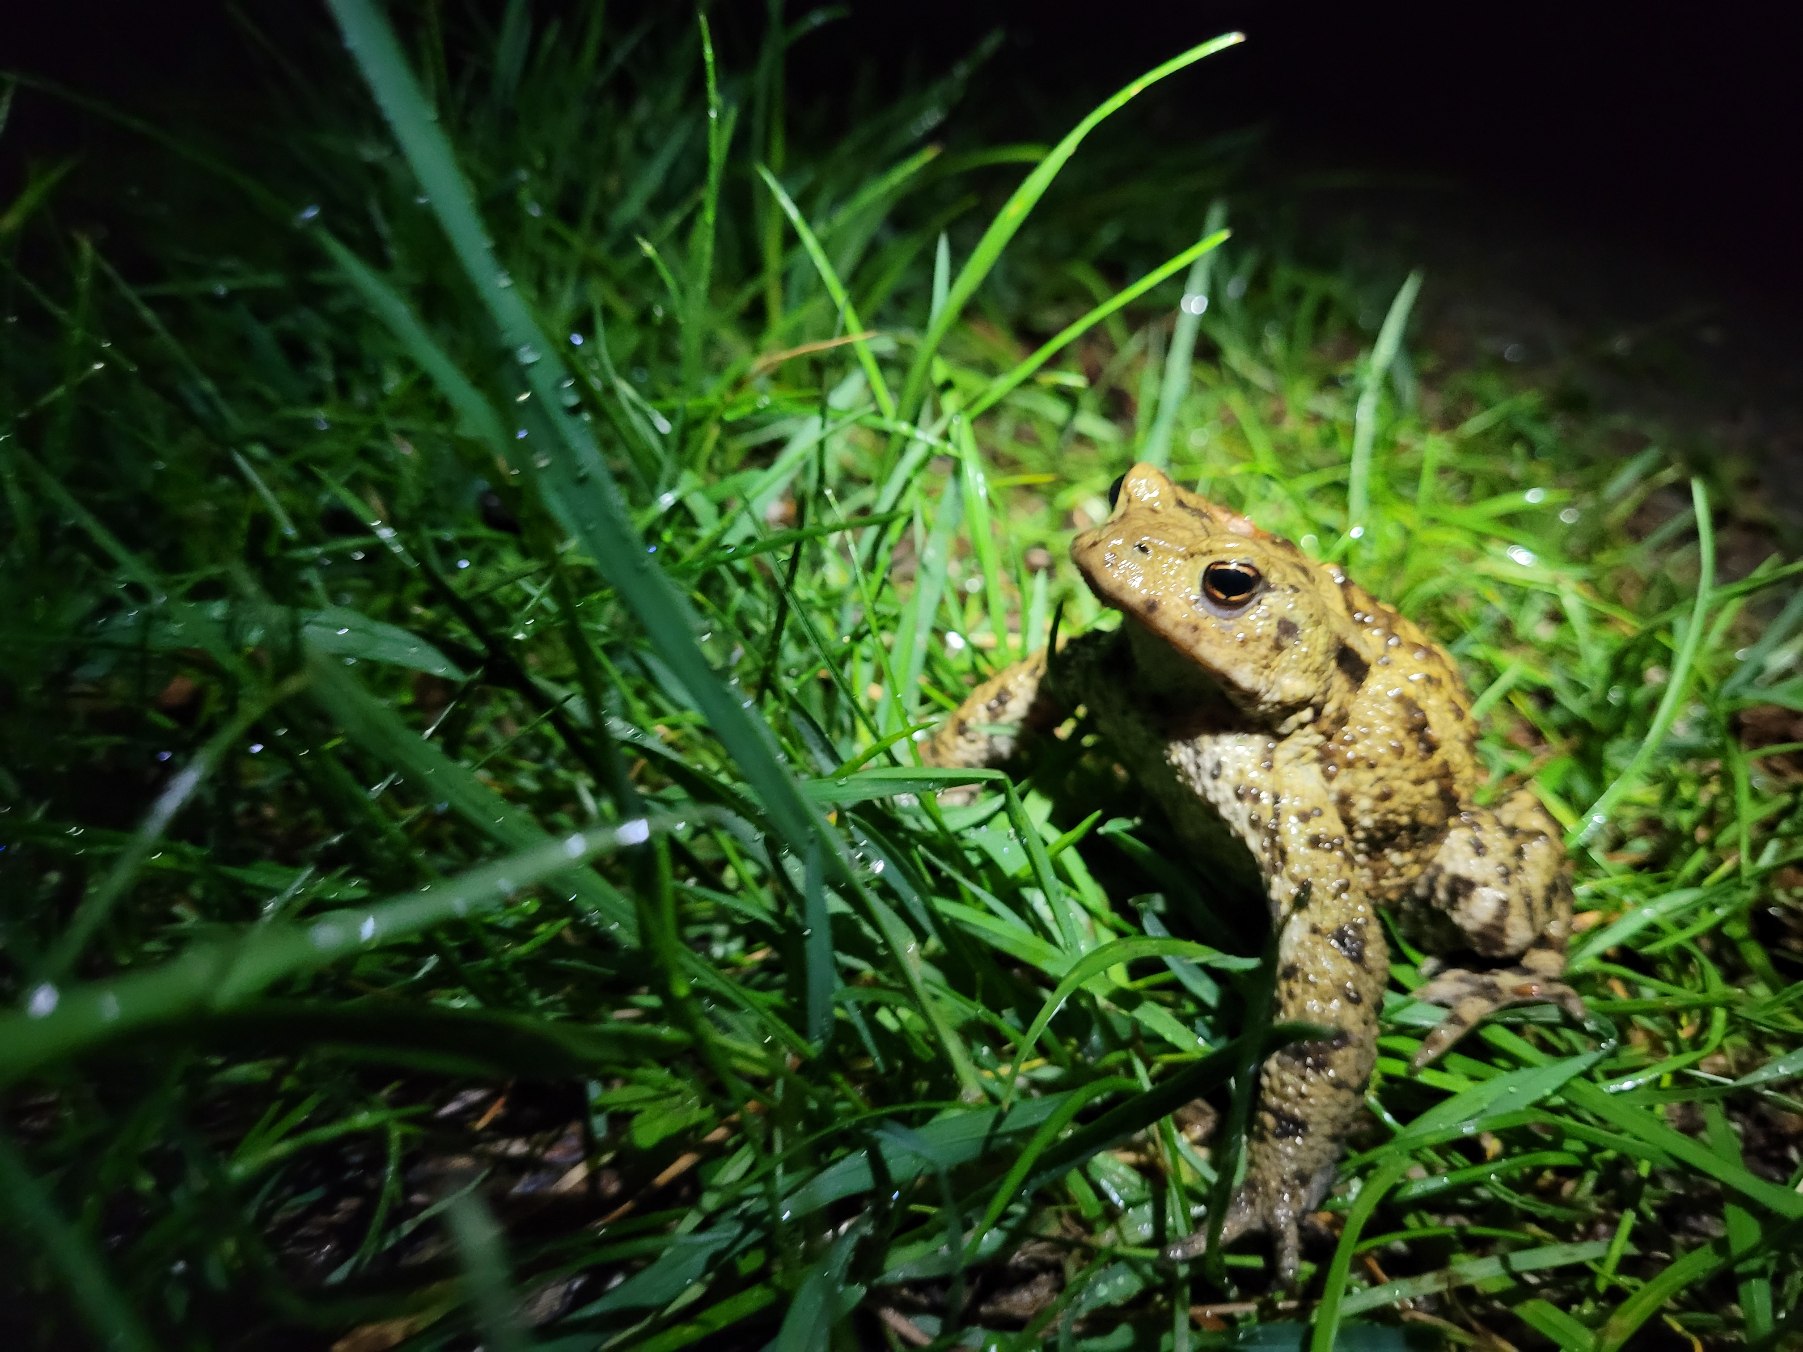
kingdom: Animalia
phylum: Chordata
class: Amphibia
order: Anura
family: Bufonidae
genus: Bufo
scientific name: Bufo bufo
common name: Skrubtudse
